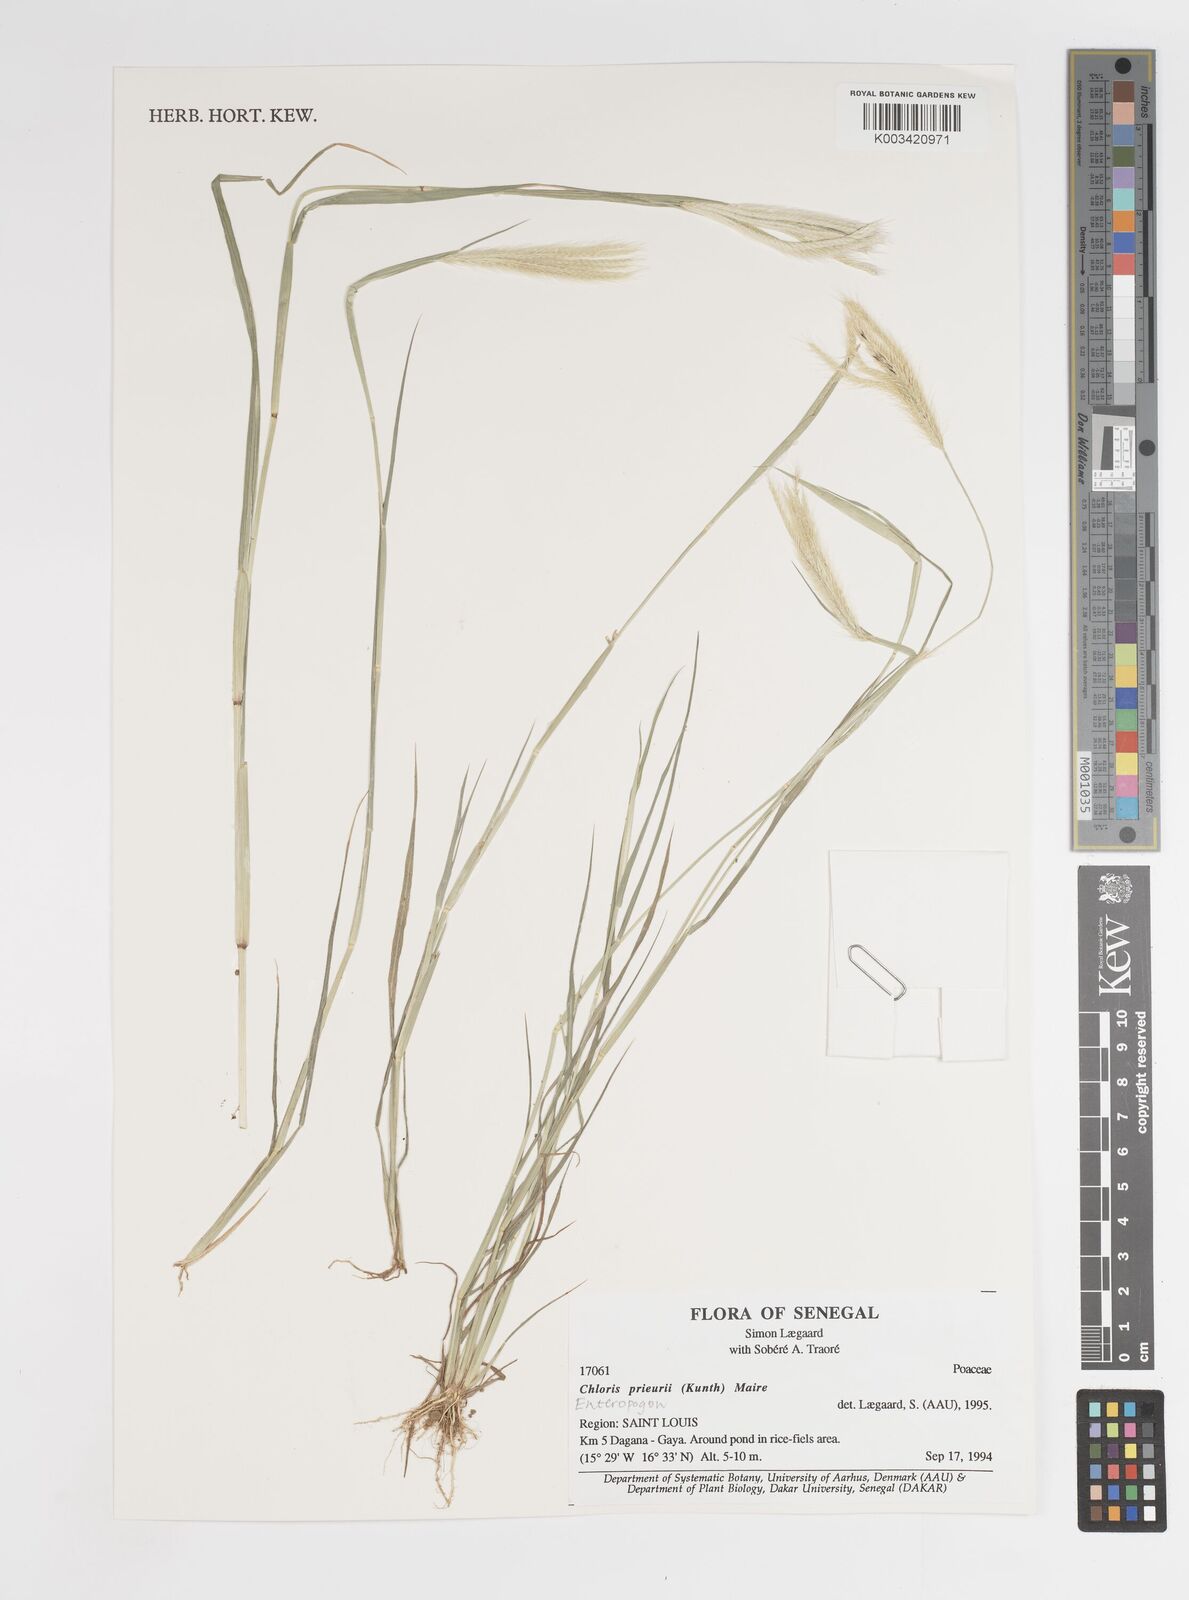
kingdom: Plantae
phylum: Tracheophyta
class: Liliopsida
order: Poales
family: Poaceae
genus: Enteropogon
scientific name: Enteropogon prieurii
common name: Prieur's umbrellagrass
